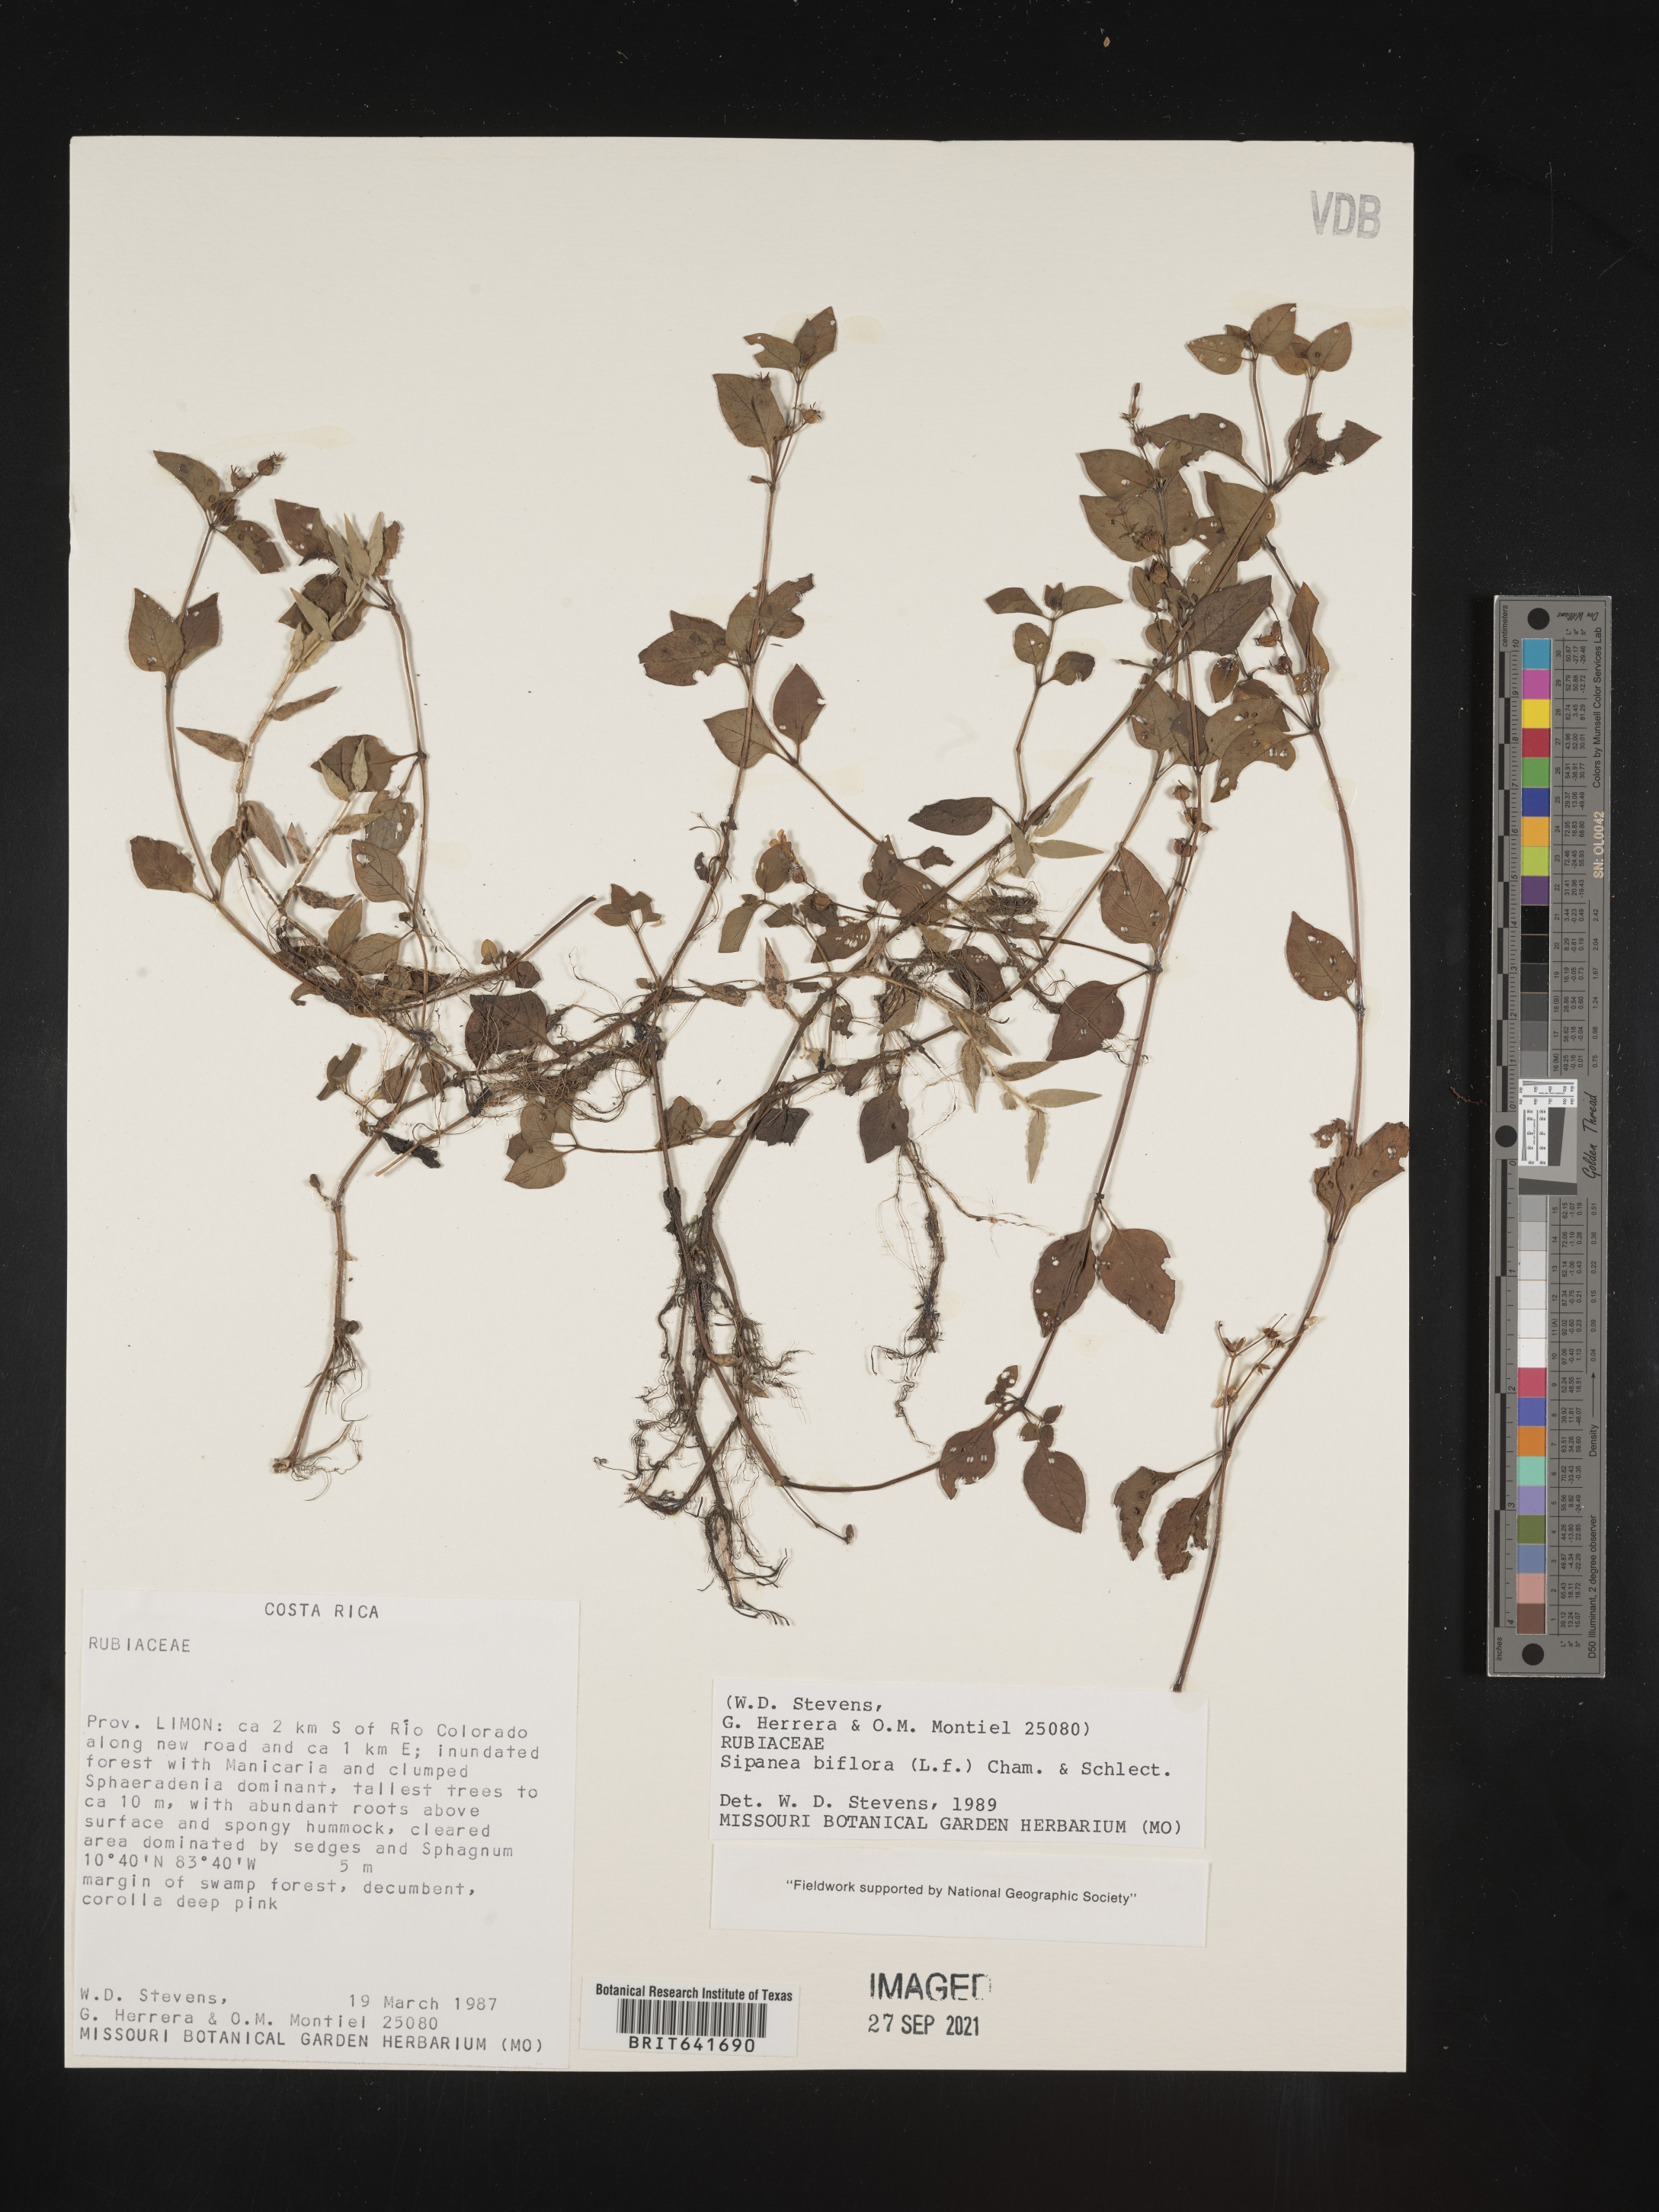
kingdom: Plantae
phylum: Tracheophyta
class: Magnoliopsida
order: Gentianales
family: Rubiaceae
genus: Sipanea
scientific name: Sipanea
